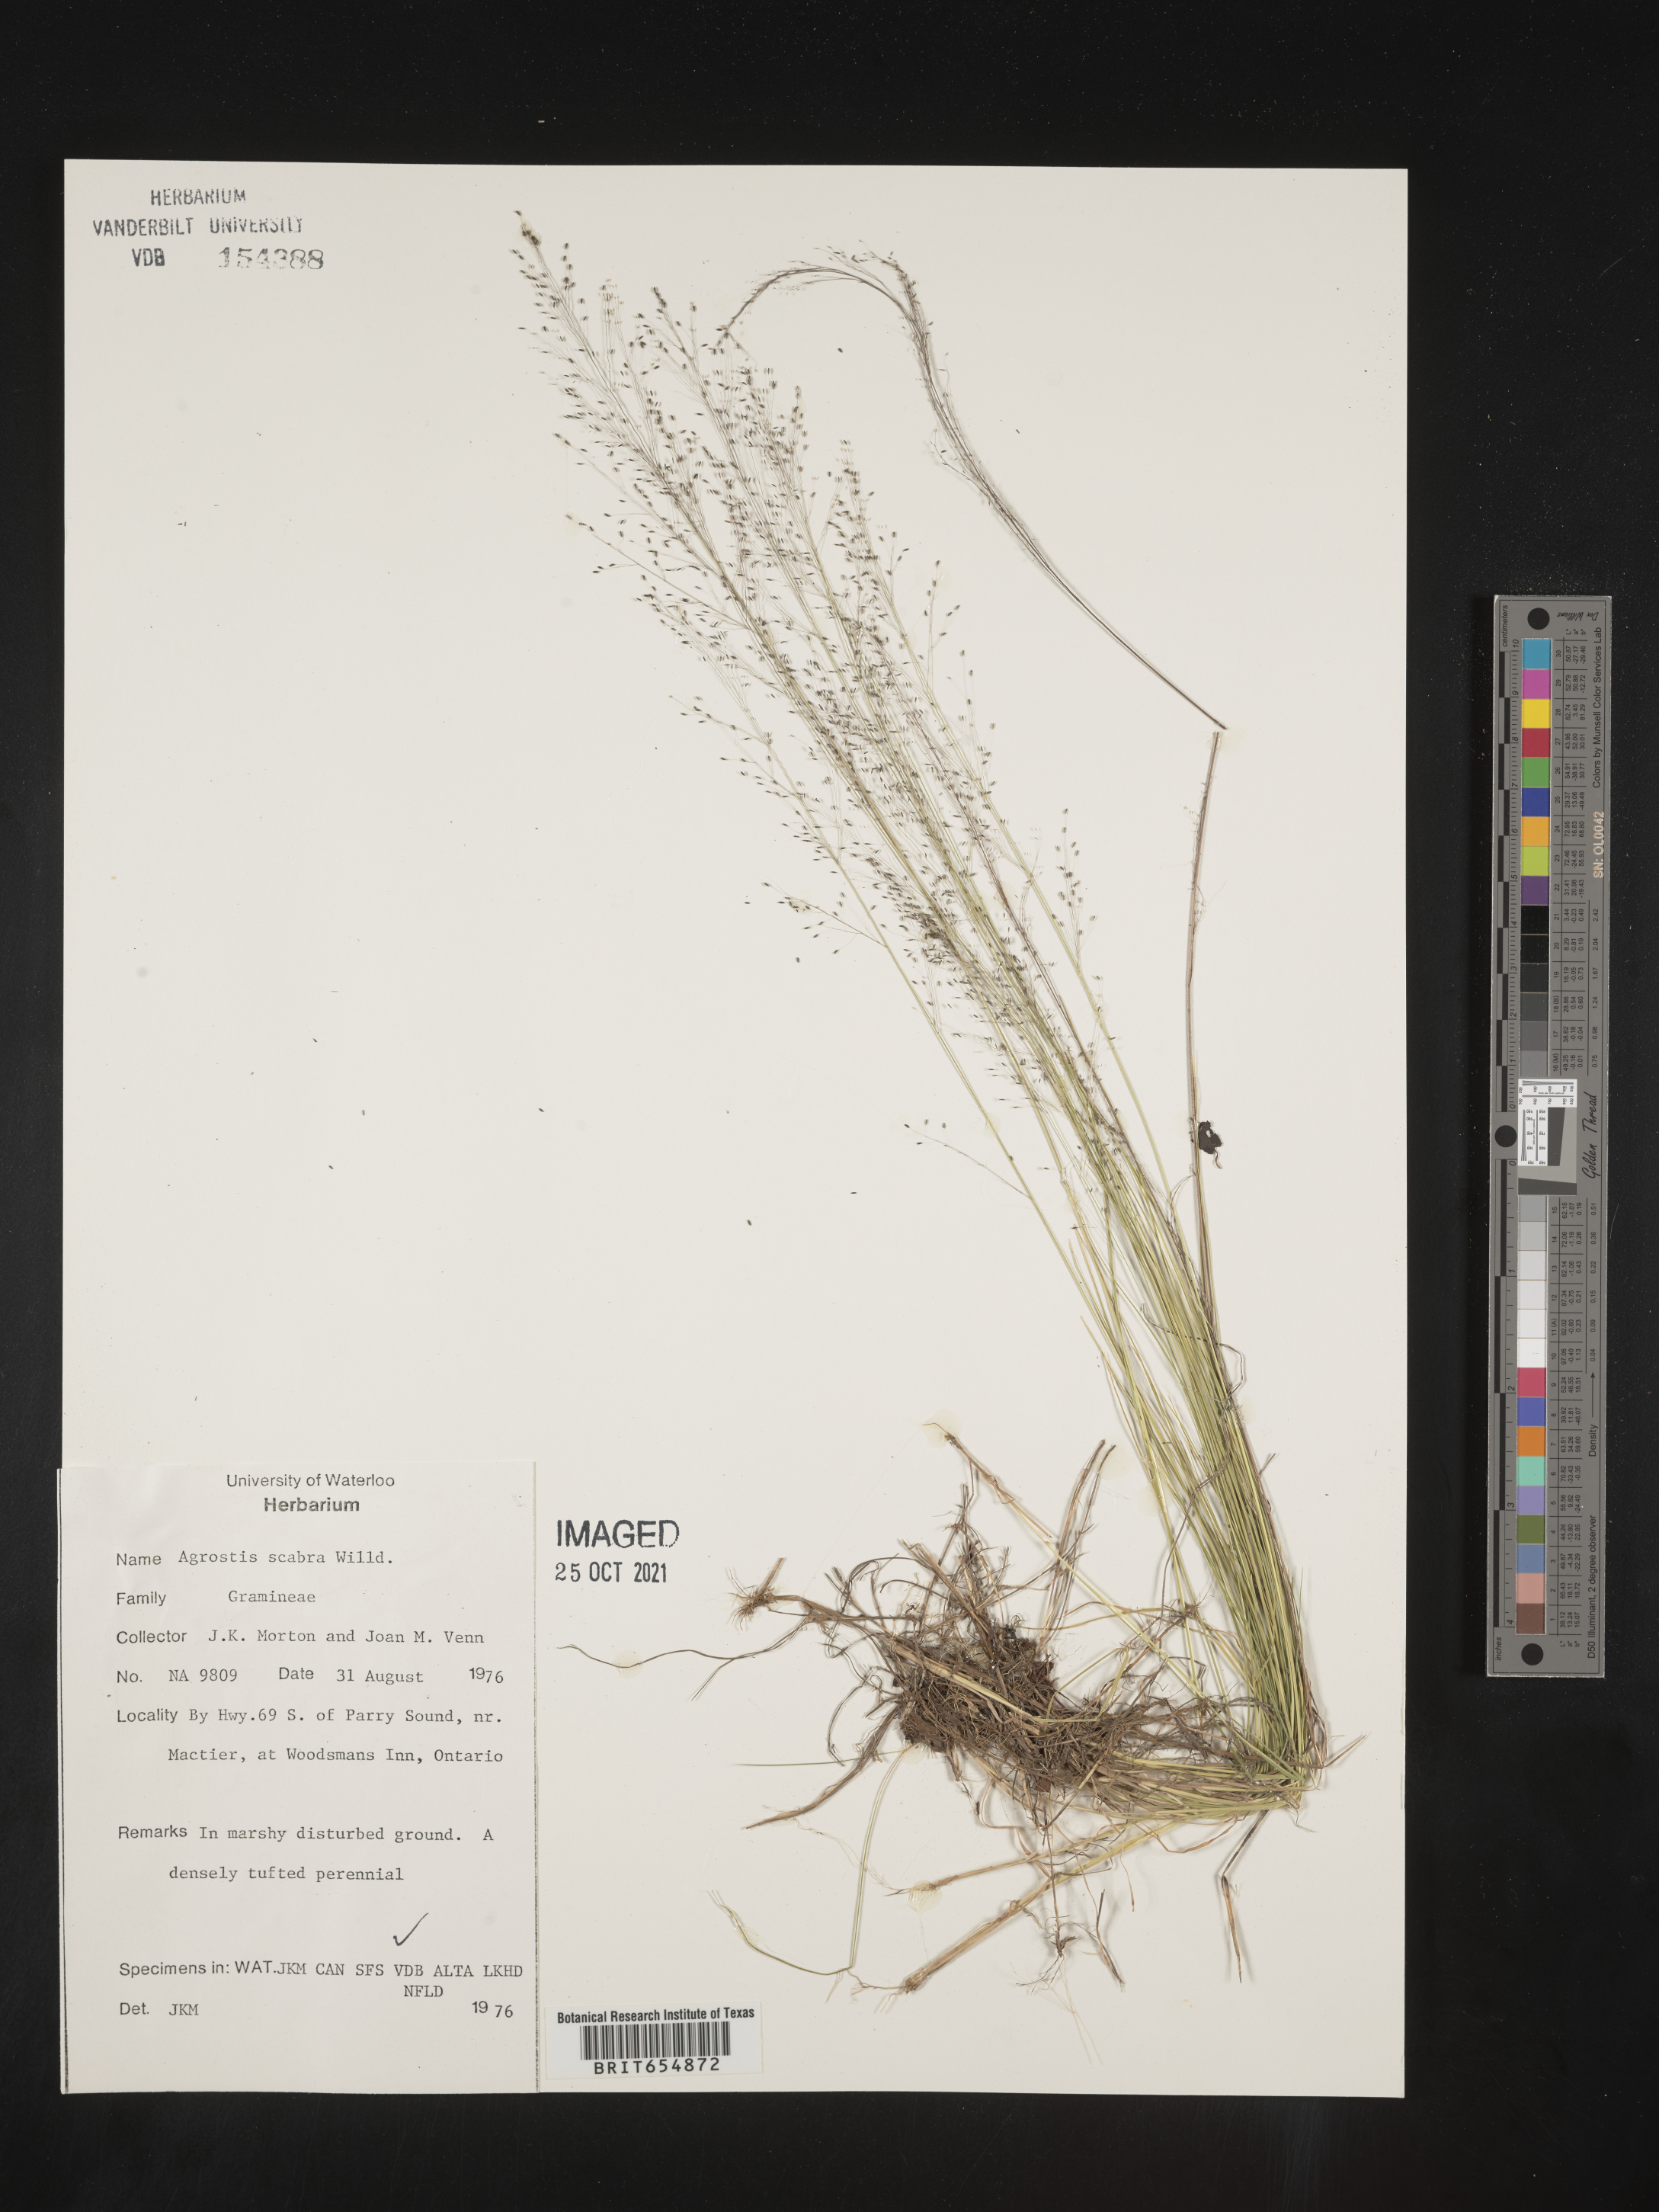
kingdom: Plantae
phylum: Tracheophyta
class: Liliopsida
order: Poales
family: Poaceae
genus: Agrostis
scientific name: Agrostis
